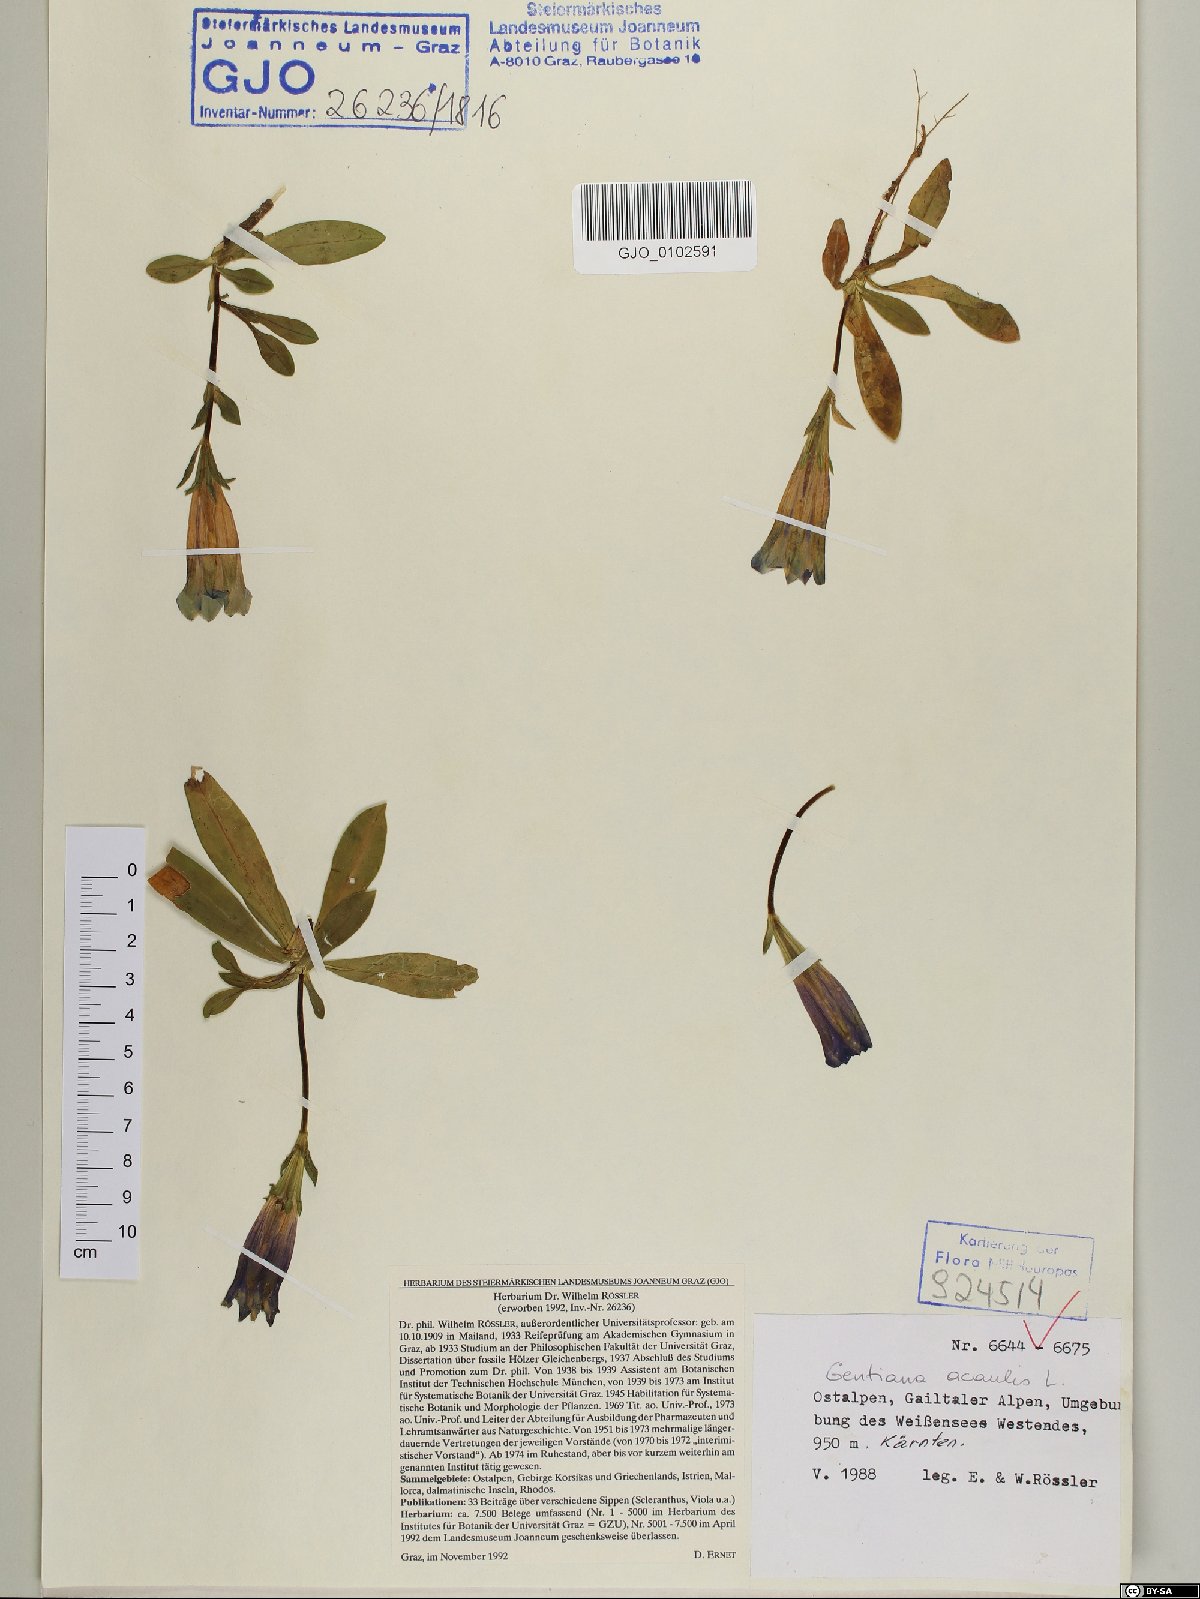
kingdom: Plantae
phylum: Tracheophyta
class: Magnoliopsida
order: Gentianales
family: Gentianaceae
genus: Gentiana
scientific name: Gentiana acaulis
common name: Trumpet gentian
